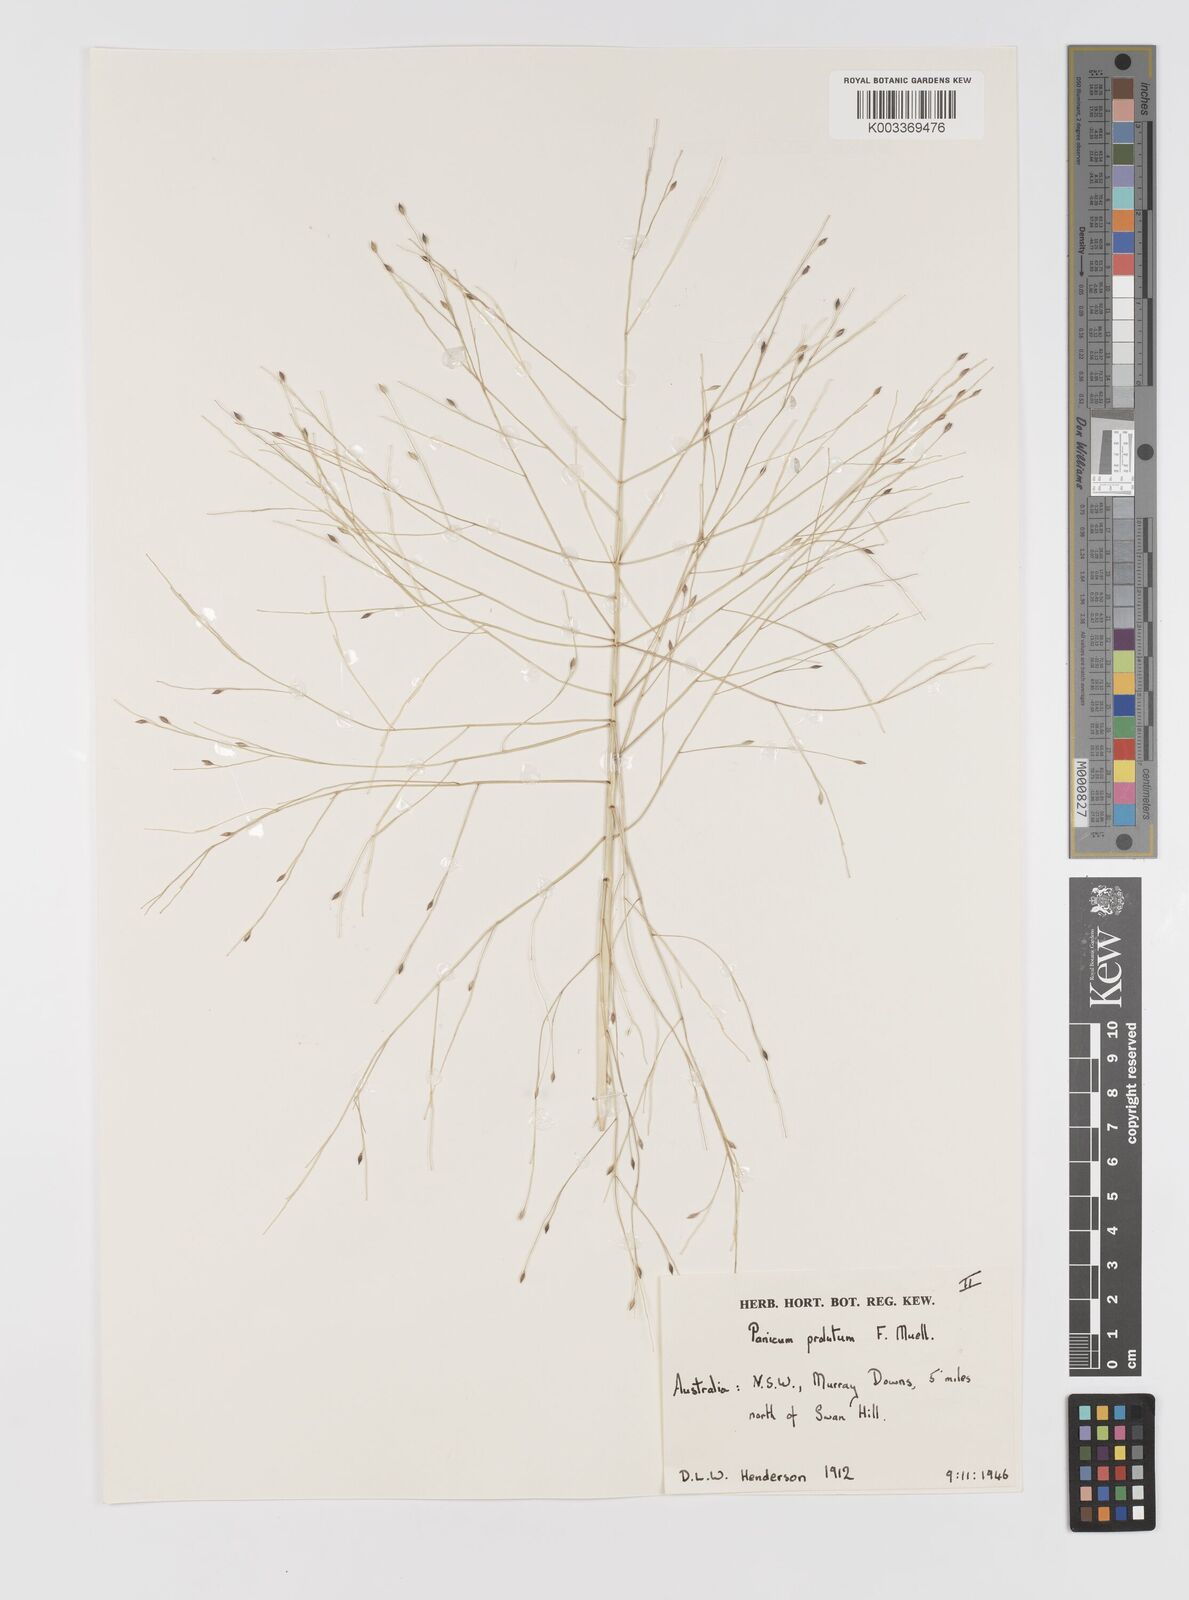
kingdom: Plantae
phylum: Tracheophyta
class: Liliopsida
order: Poales
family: Poaceae
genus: Walwhalleya
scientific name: Walwhalleya proluta
